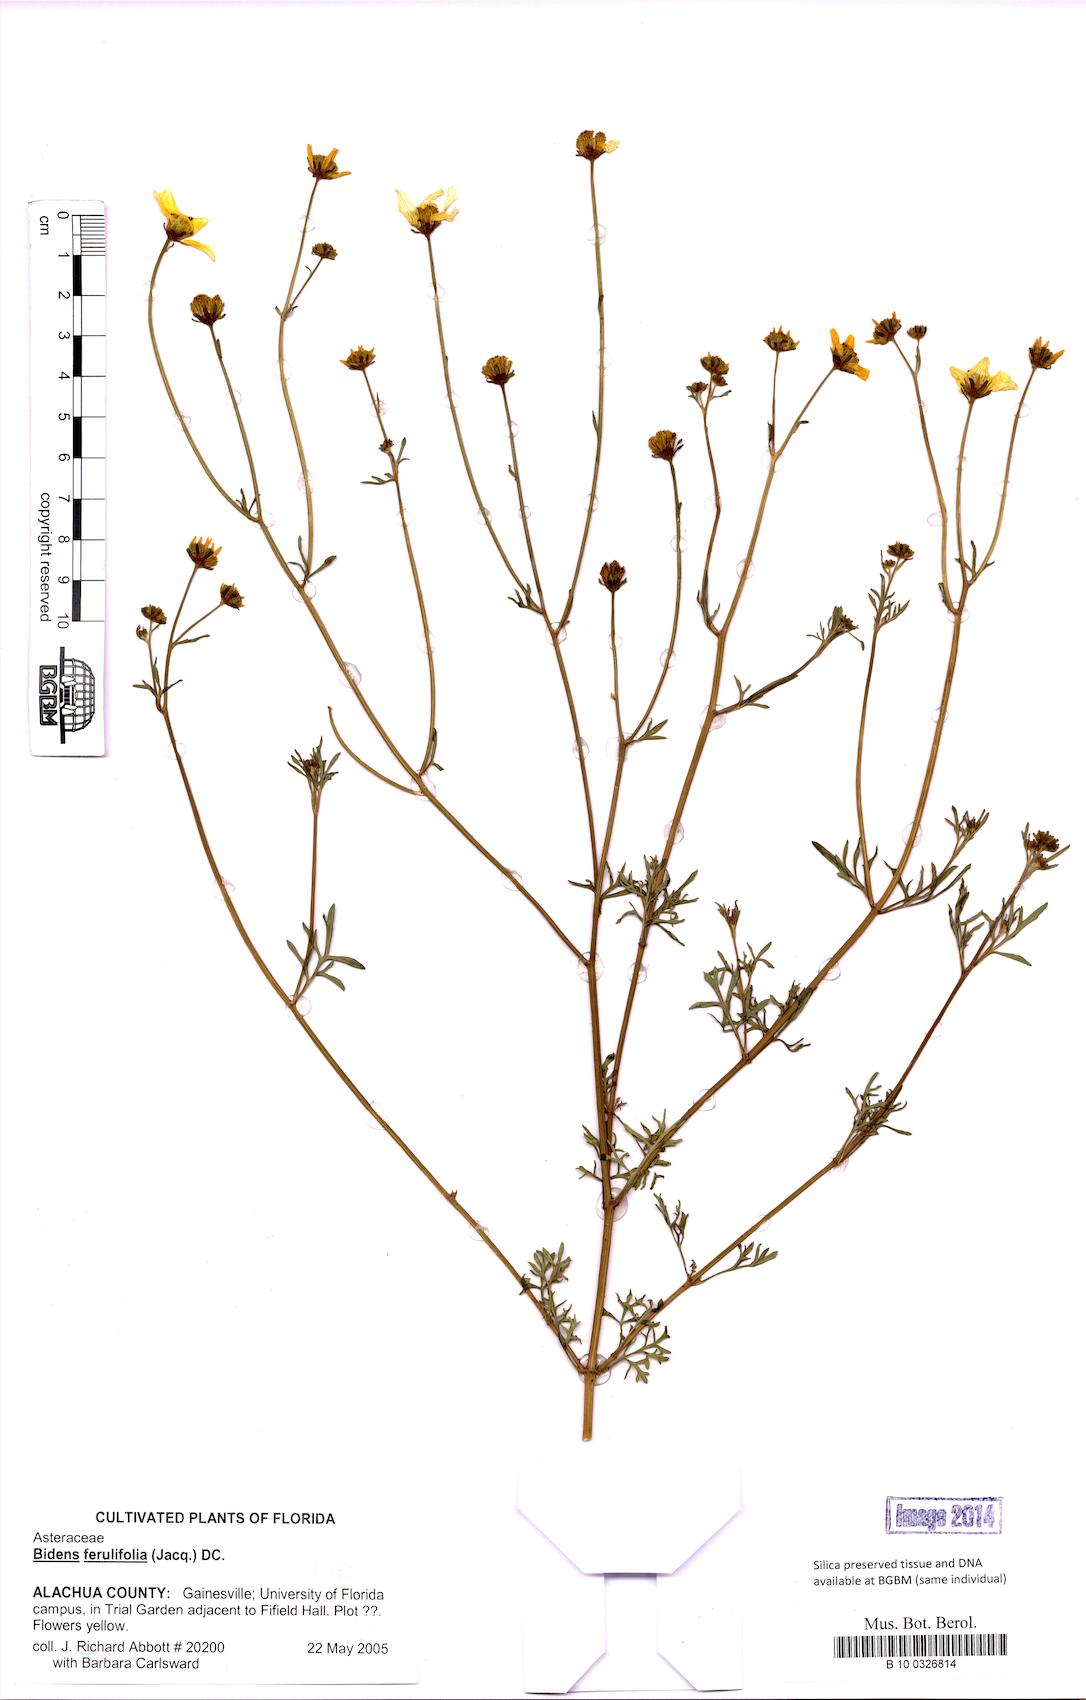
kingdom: Plantae
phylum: Tracheophyta
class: Magnoliopsida
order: Asterales
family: Asteraceae
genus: Bidens
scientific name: Bidens aurea
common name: Arizona beggar-ticks
